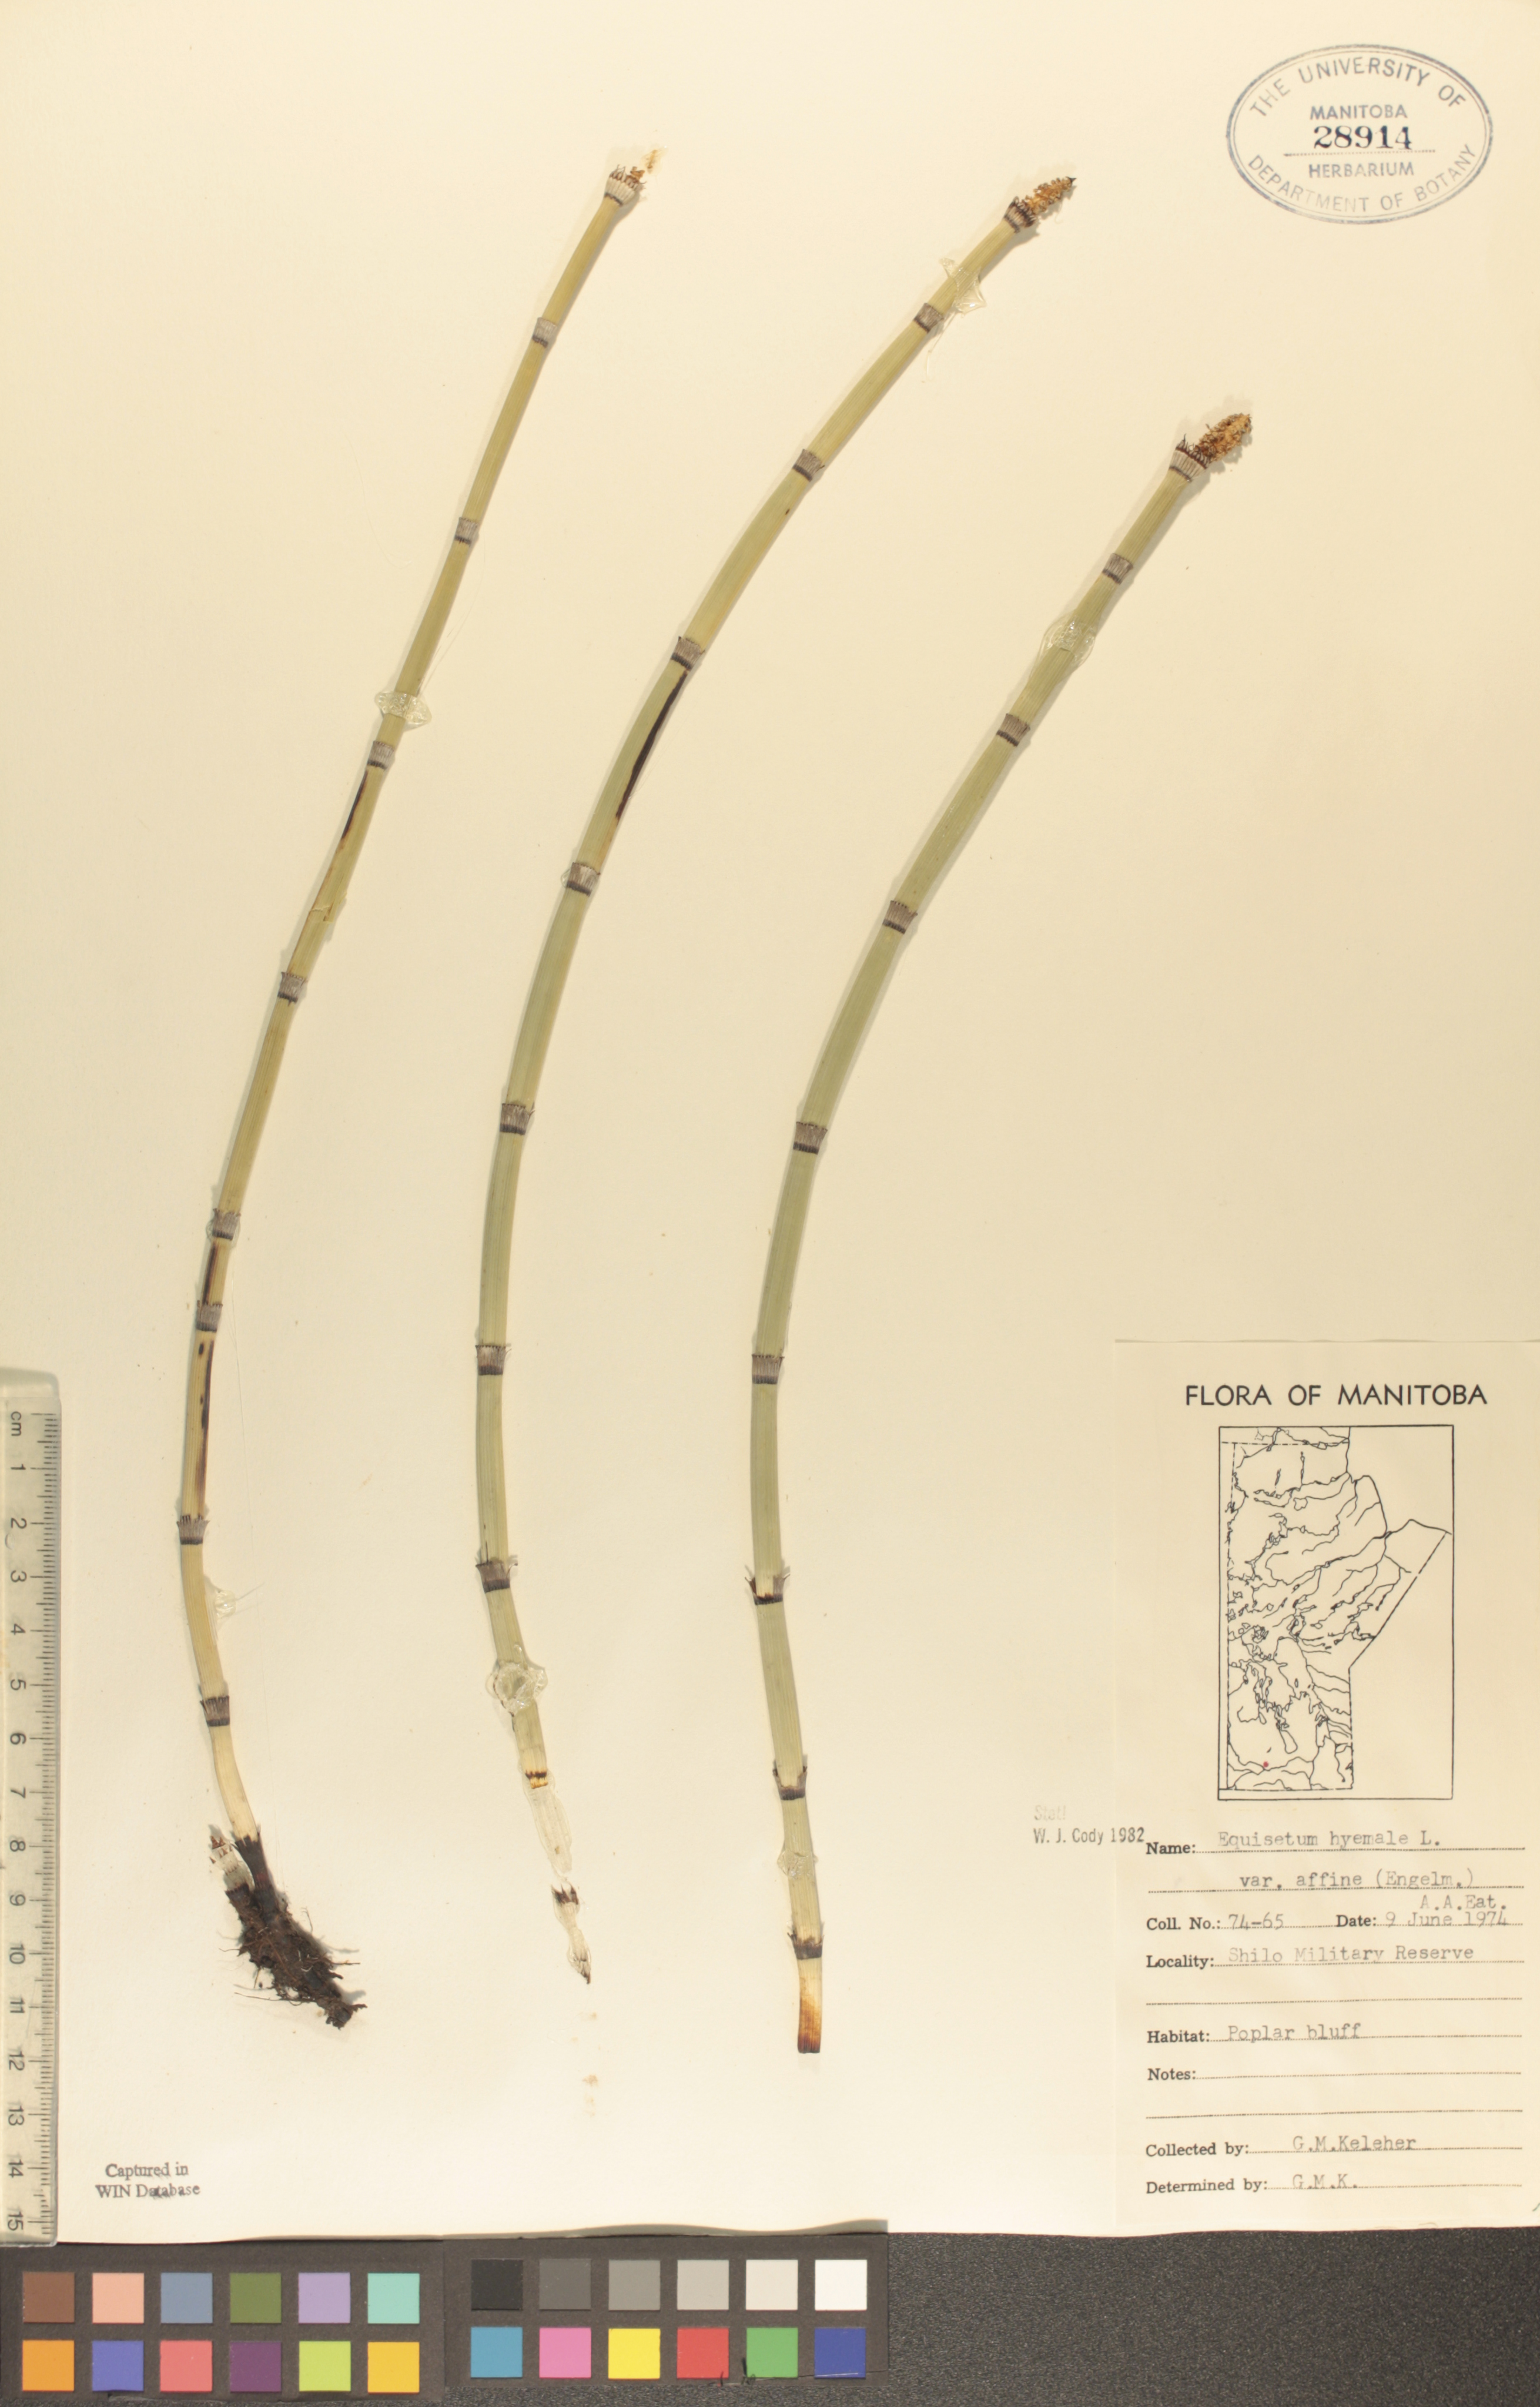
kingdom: Plantae
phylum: Tracheophyta
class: Polypodiopsida
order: Equisetales
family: Equisetaceae
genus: Equisetum
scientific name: Equisetum praealtum
